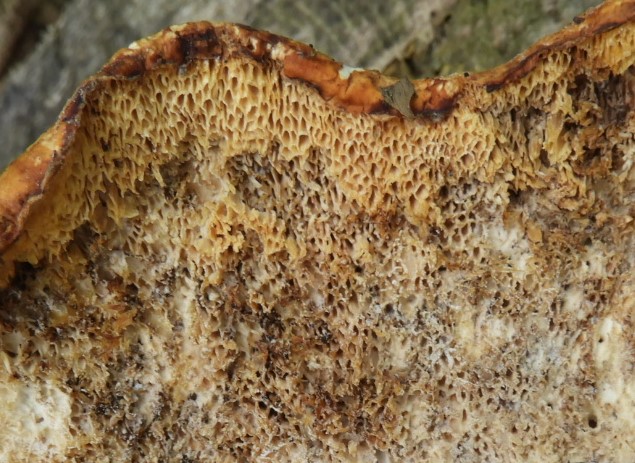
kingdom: Fungi
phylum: Basidiomycota
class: Agaricomycetes
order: Polyporales
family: Polyporaceae
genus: Cerioporus
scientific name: Cerioporus squamosus
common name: skællet stilkporesvamp
